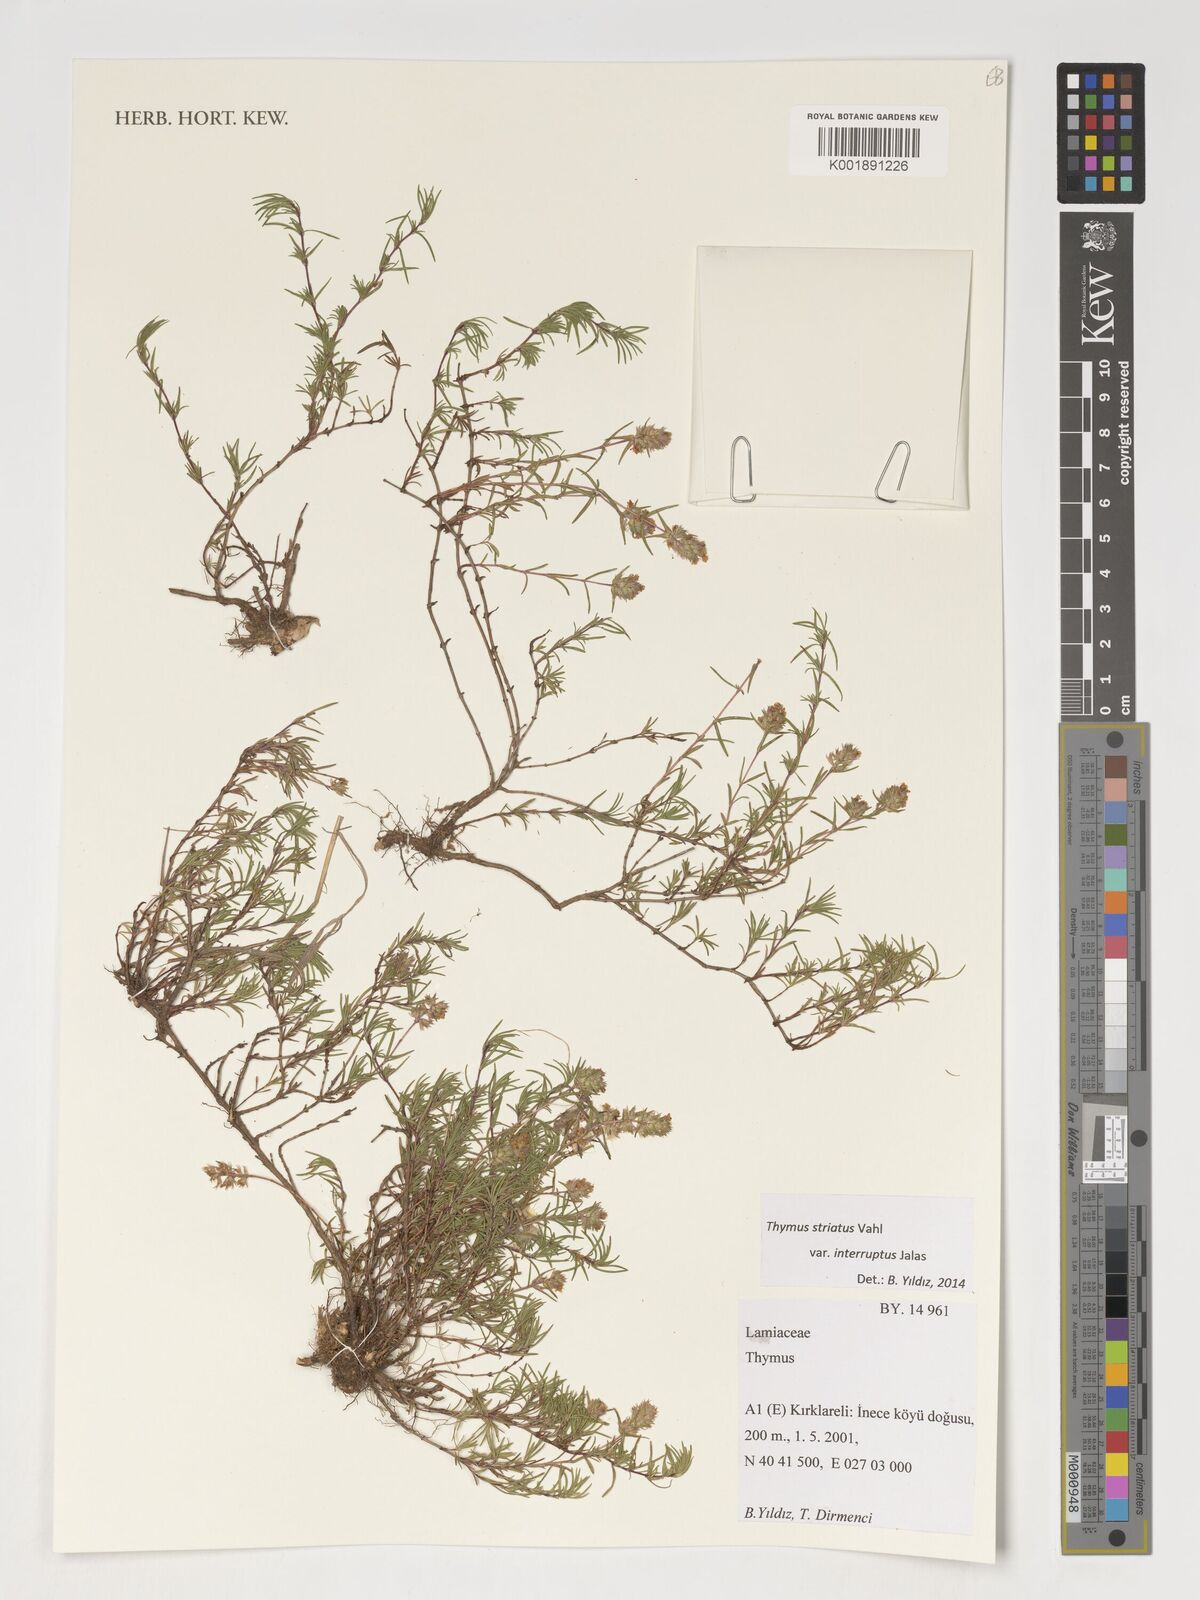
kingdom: Plantae
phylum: Tracheophyta
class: Magnoliopsida
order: Lamiales
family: Lamiaceae
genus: Thymus
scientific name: Thymus striatus
